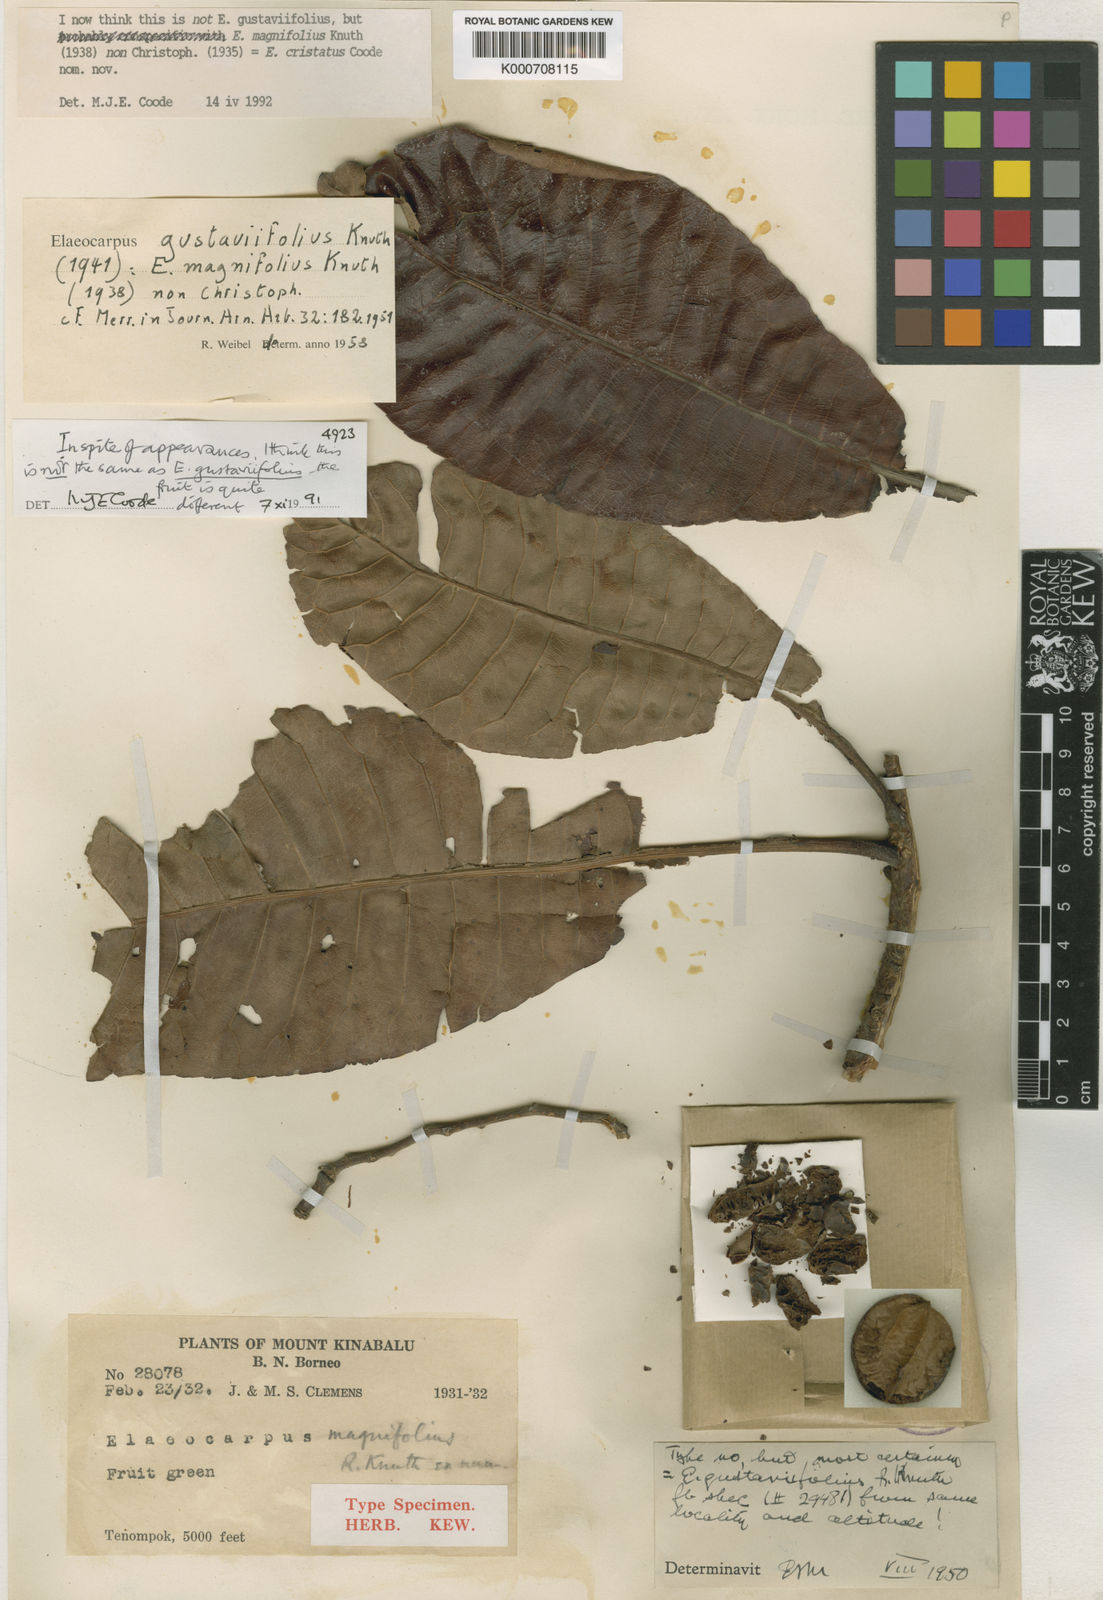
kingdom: Plantae
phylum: Tracheophyta
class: Magnoliopsida
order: Oxalidales
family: Elaeocarpaceae
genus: Elaeocarpus
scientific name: Elaeocarpus cristatus
